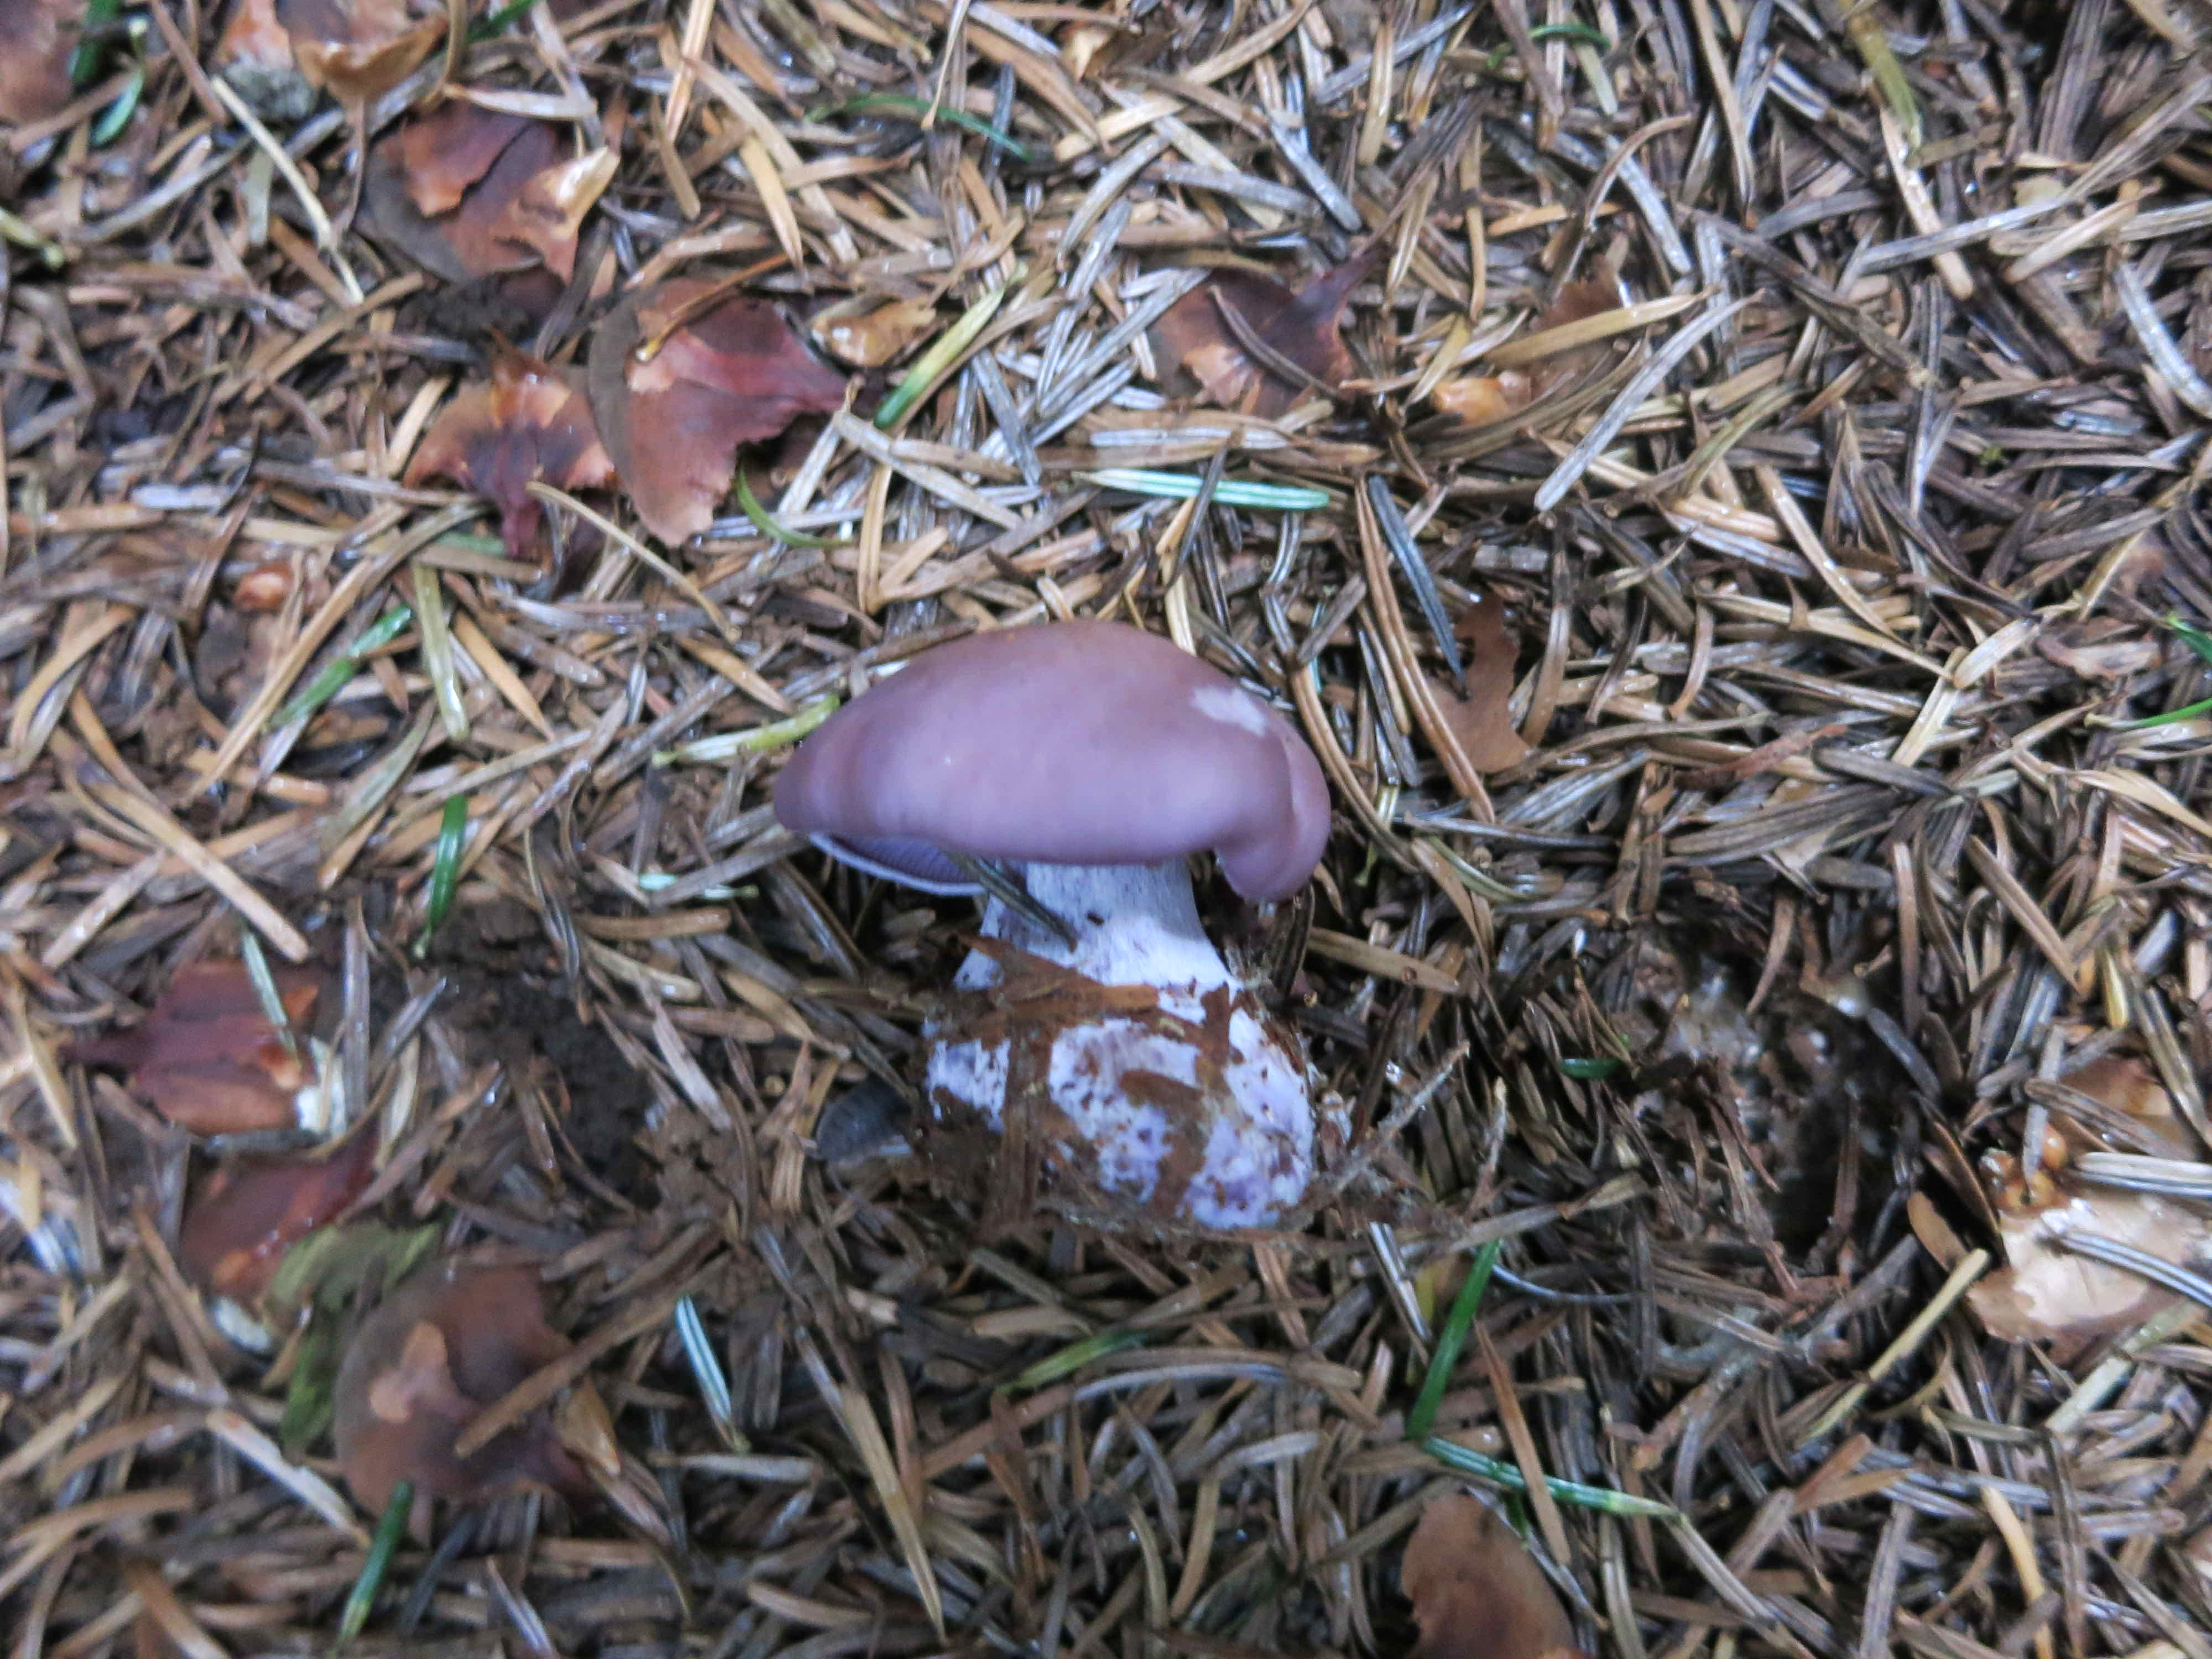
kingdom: Fungi
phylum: Basidiomycota
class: Agaricomycetes
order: Agaricales
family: Tricholomataceae
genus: Lepista
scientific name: Lepista nuda
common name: violet hekseringshat
